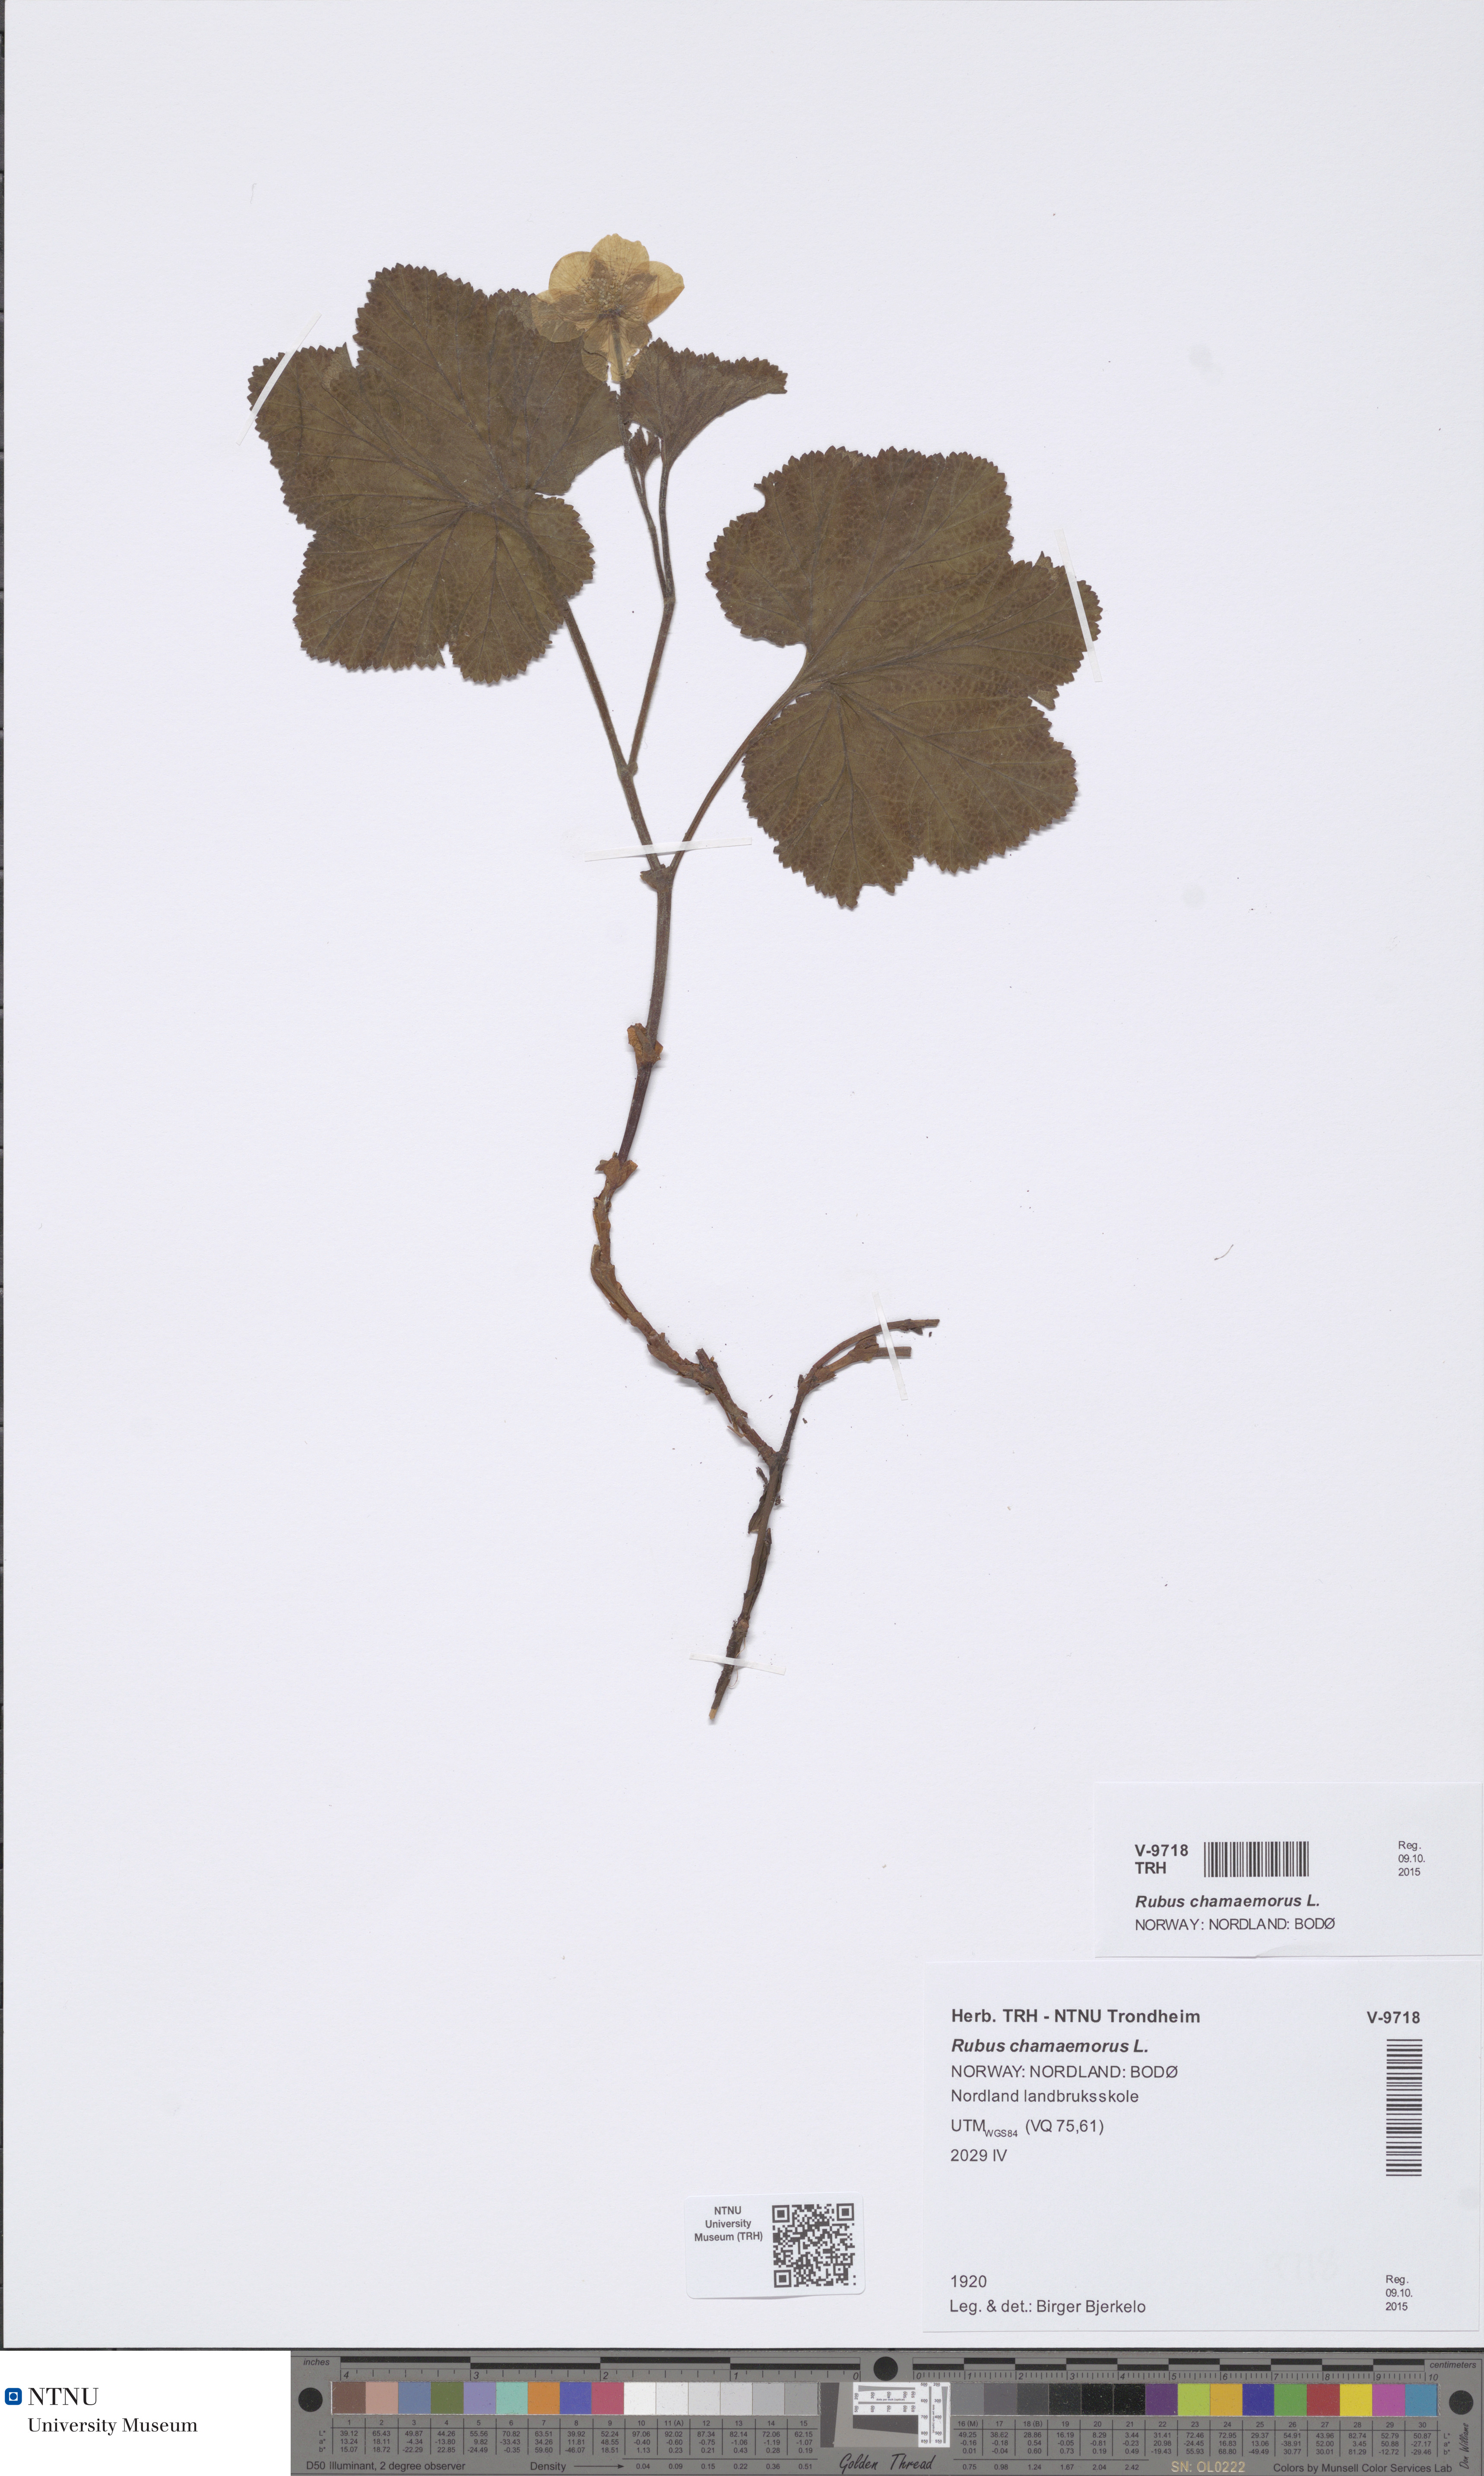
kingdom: Plantae
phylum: Tracheophyta
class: Magnoliopsida
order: Rosales
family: Rosaceae
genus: Rubus
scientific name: Rubus chamaemorus
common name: Cloudberry
